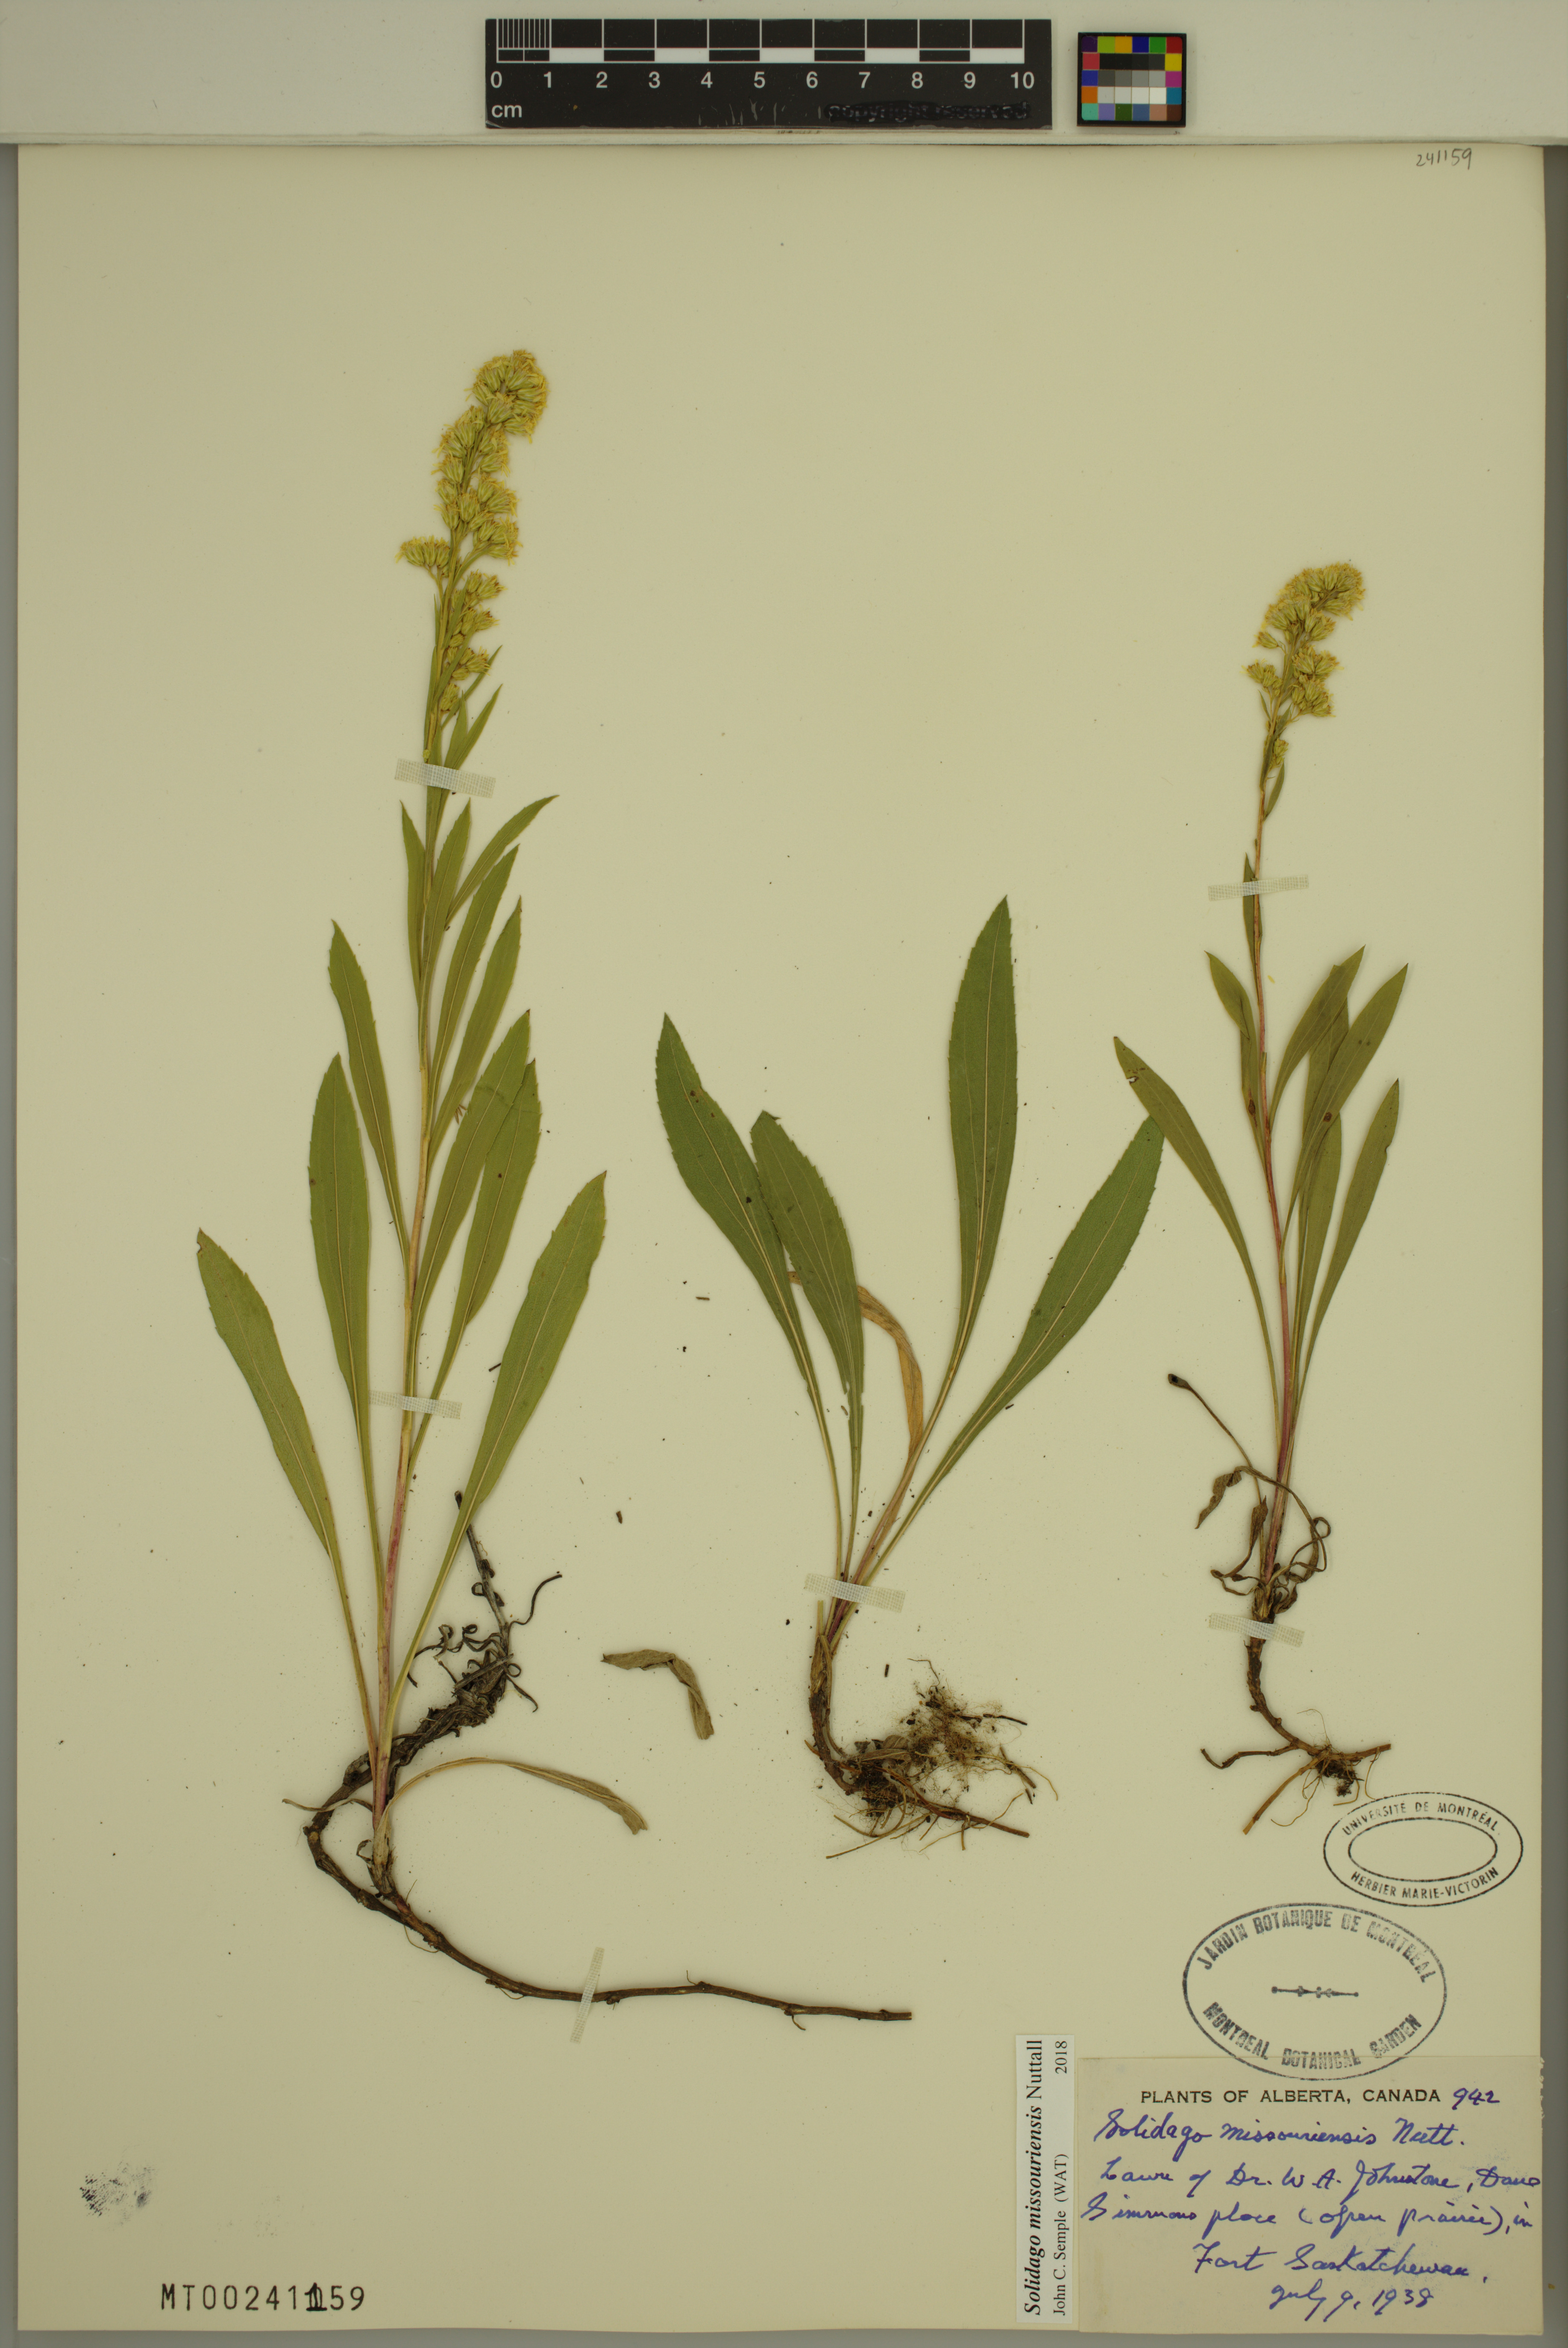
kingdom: Plantae
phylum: Tracheophyta
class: Magnoliopsida
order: Asterales
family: Asteraceae
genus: Solidago
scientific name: Solidago missouriensis
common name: Prairie goldenrod
